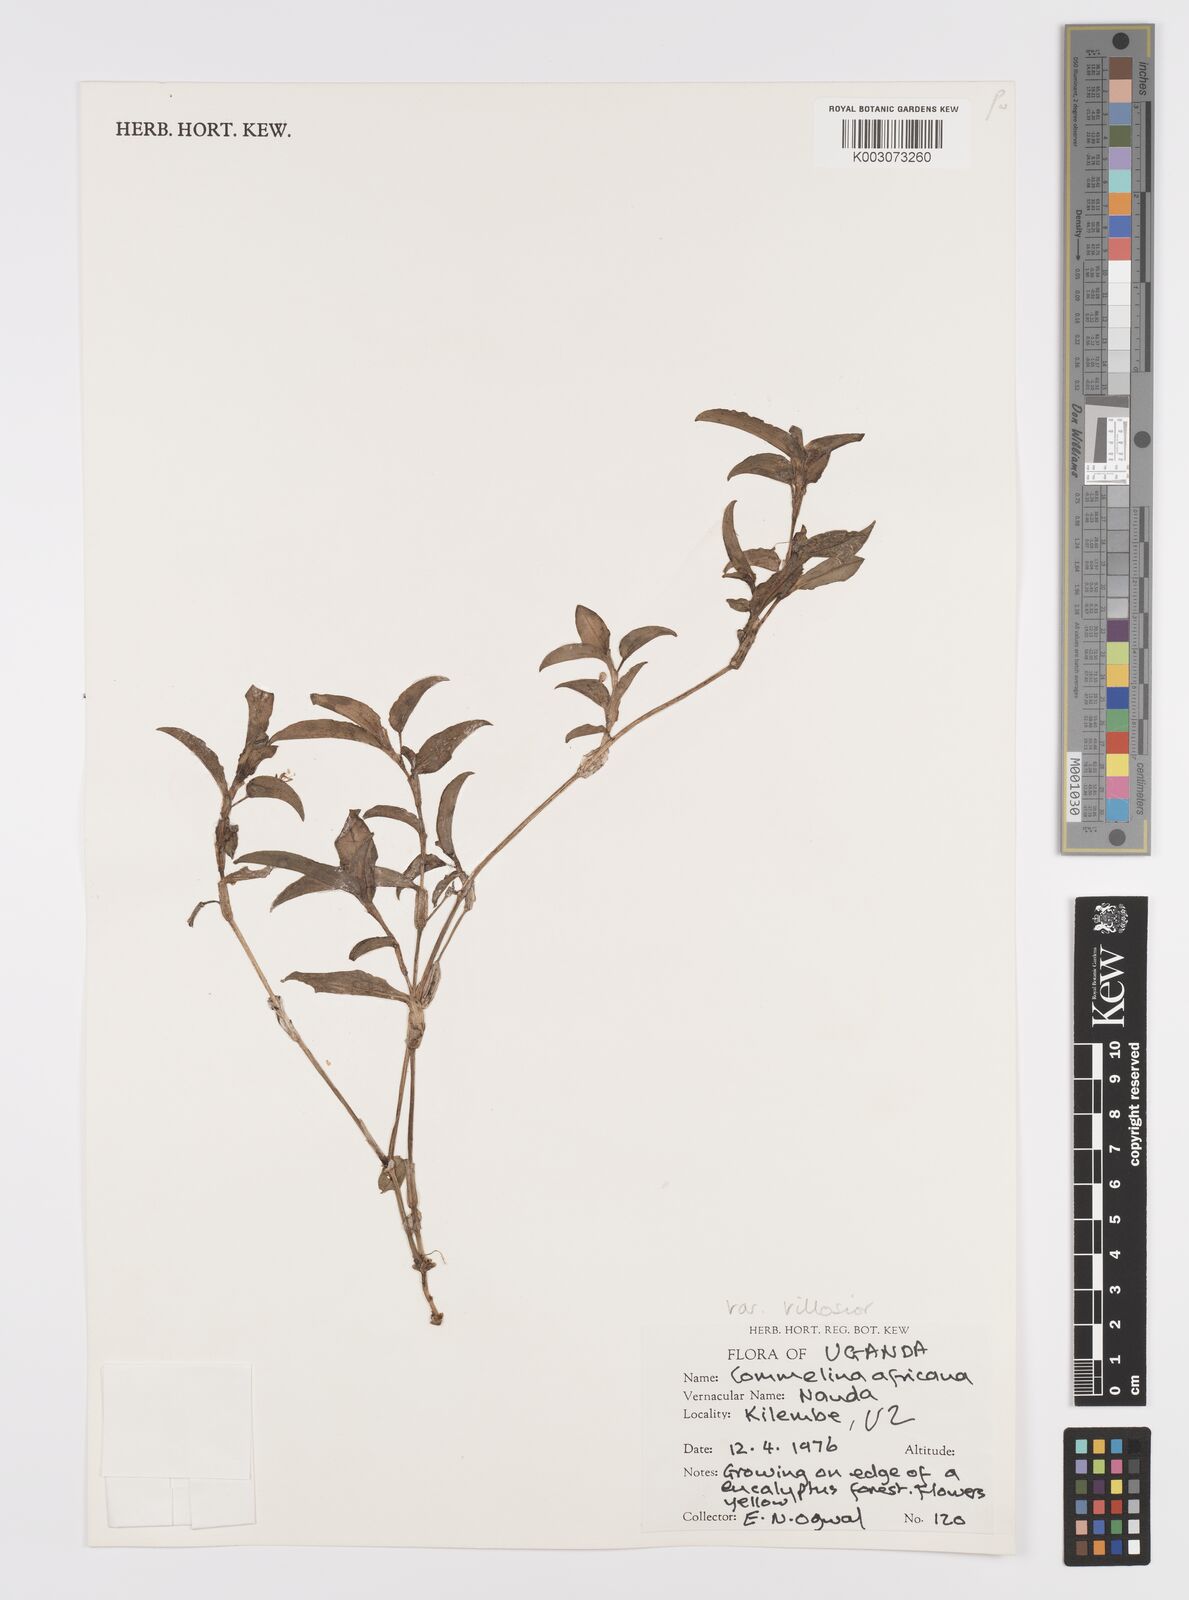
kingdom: Plantae
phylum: Tracheophyta
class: Liliopsida
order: Commelinales
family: Commelinaceae
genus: Commelina
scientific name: Commelina africana
